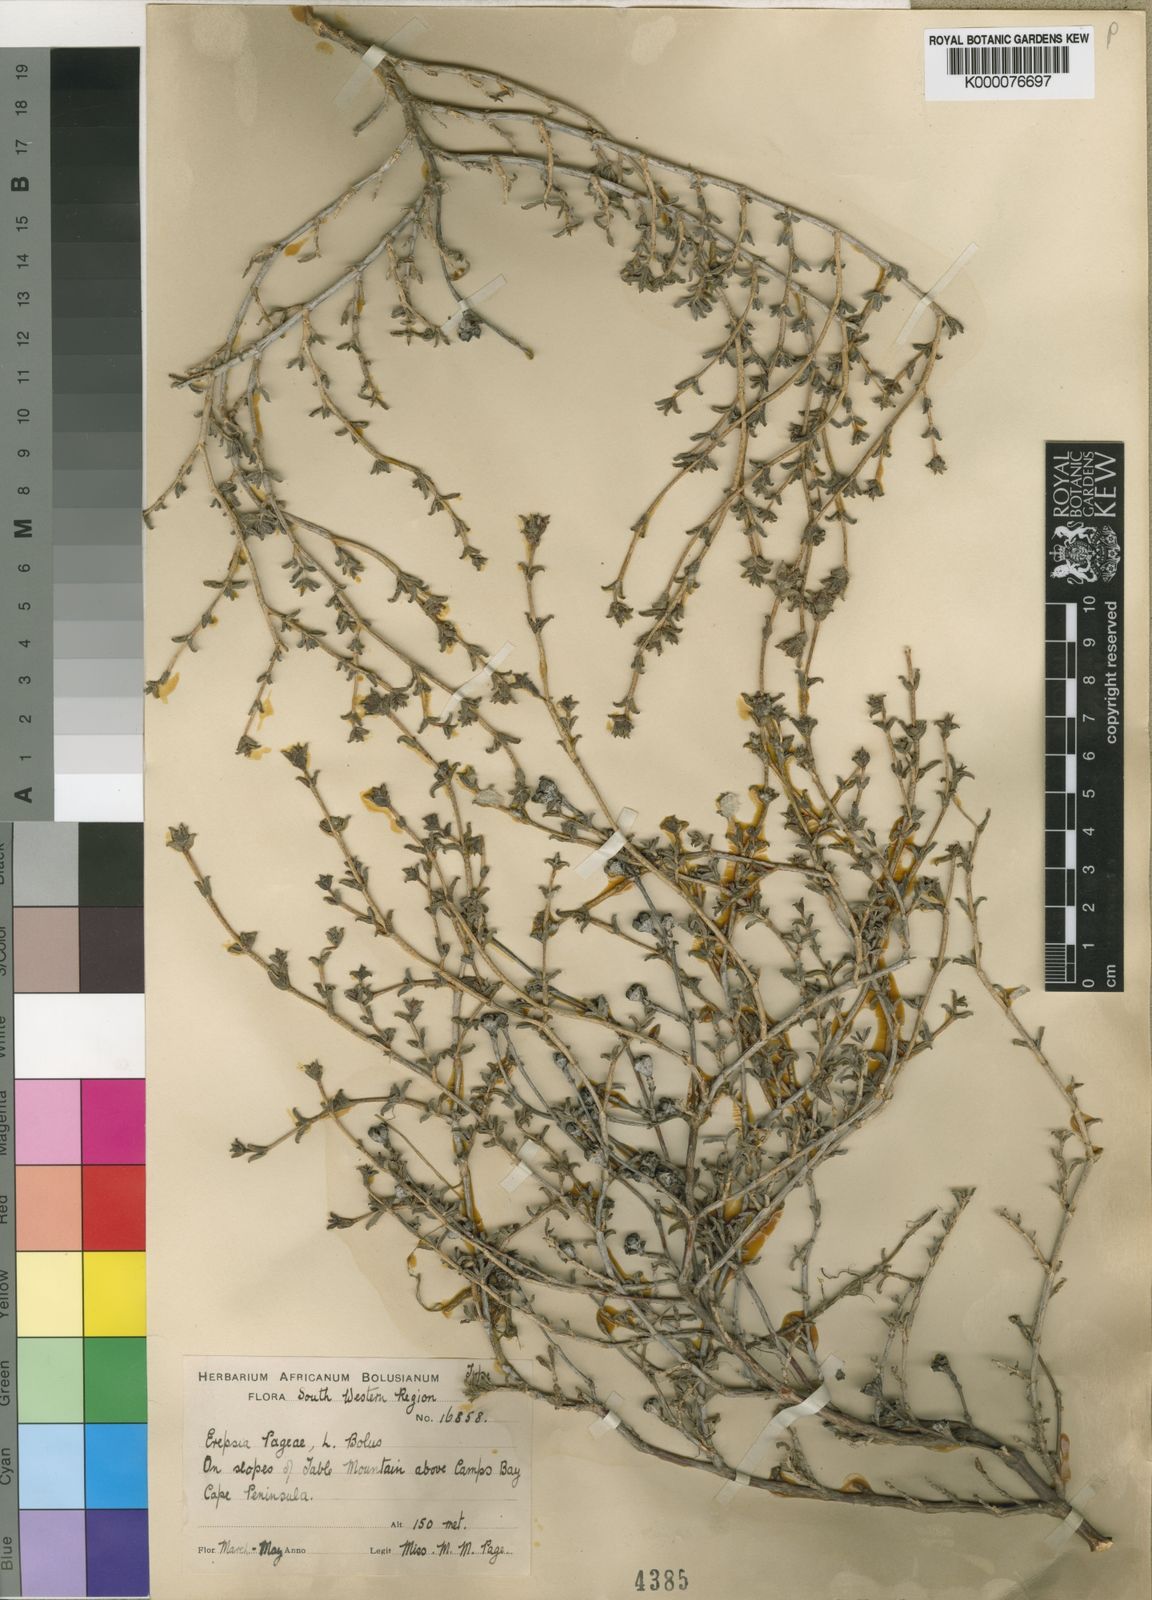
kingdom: Plantae
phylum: Tracheophyta
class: Magnoliopsida
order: Caryophyllales
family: Aizoaceae
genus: Erepsia
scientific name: Erepsia patula
